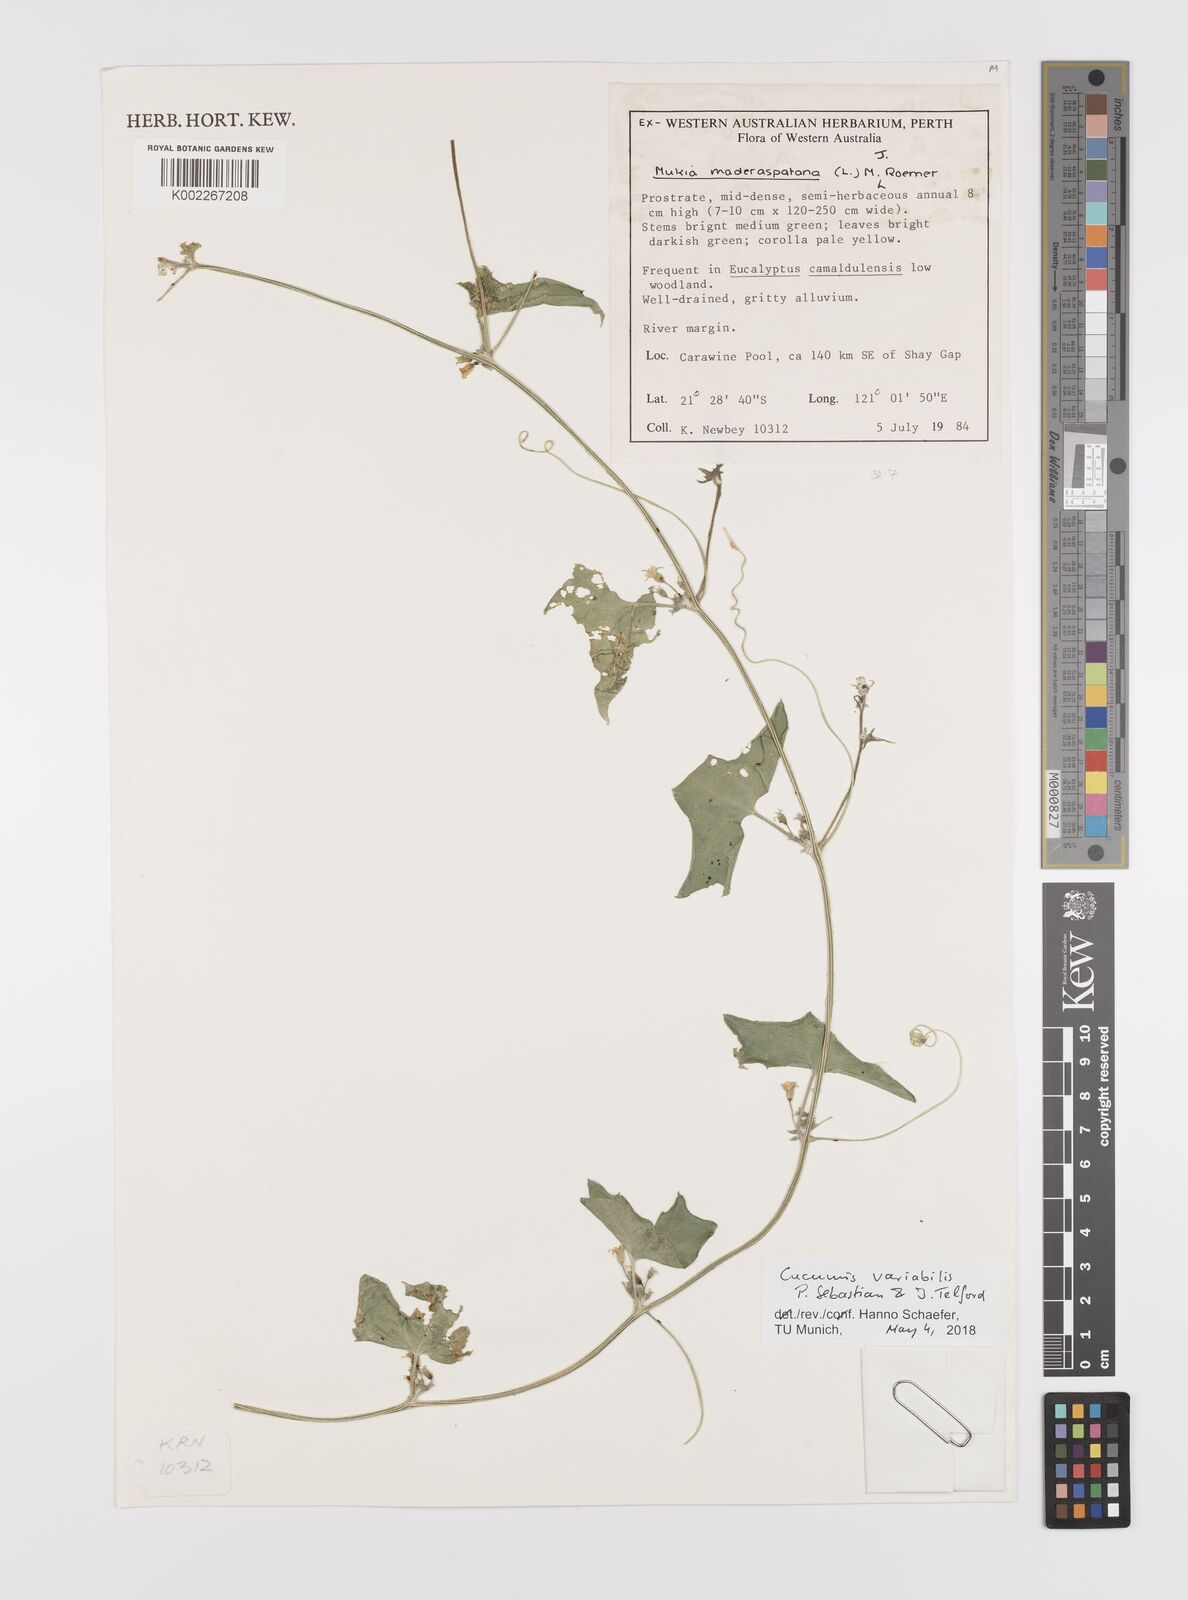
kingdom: Plantae
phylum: Tracheophyta
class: Magnoliopsida
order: Cucurbitales
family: Cucurbitaceae
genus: Cucumis
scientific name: Cucumis variabilis
